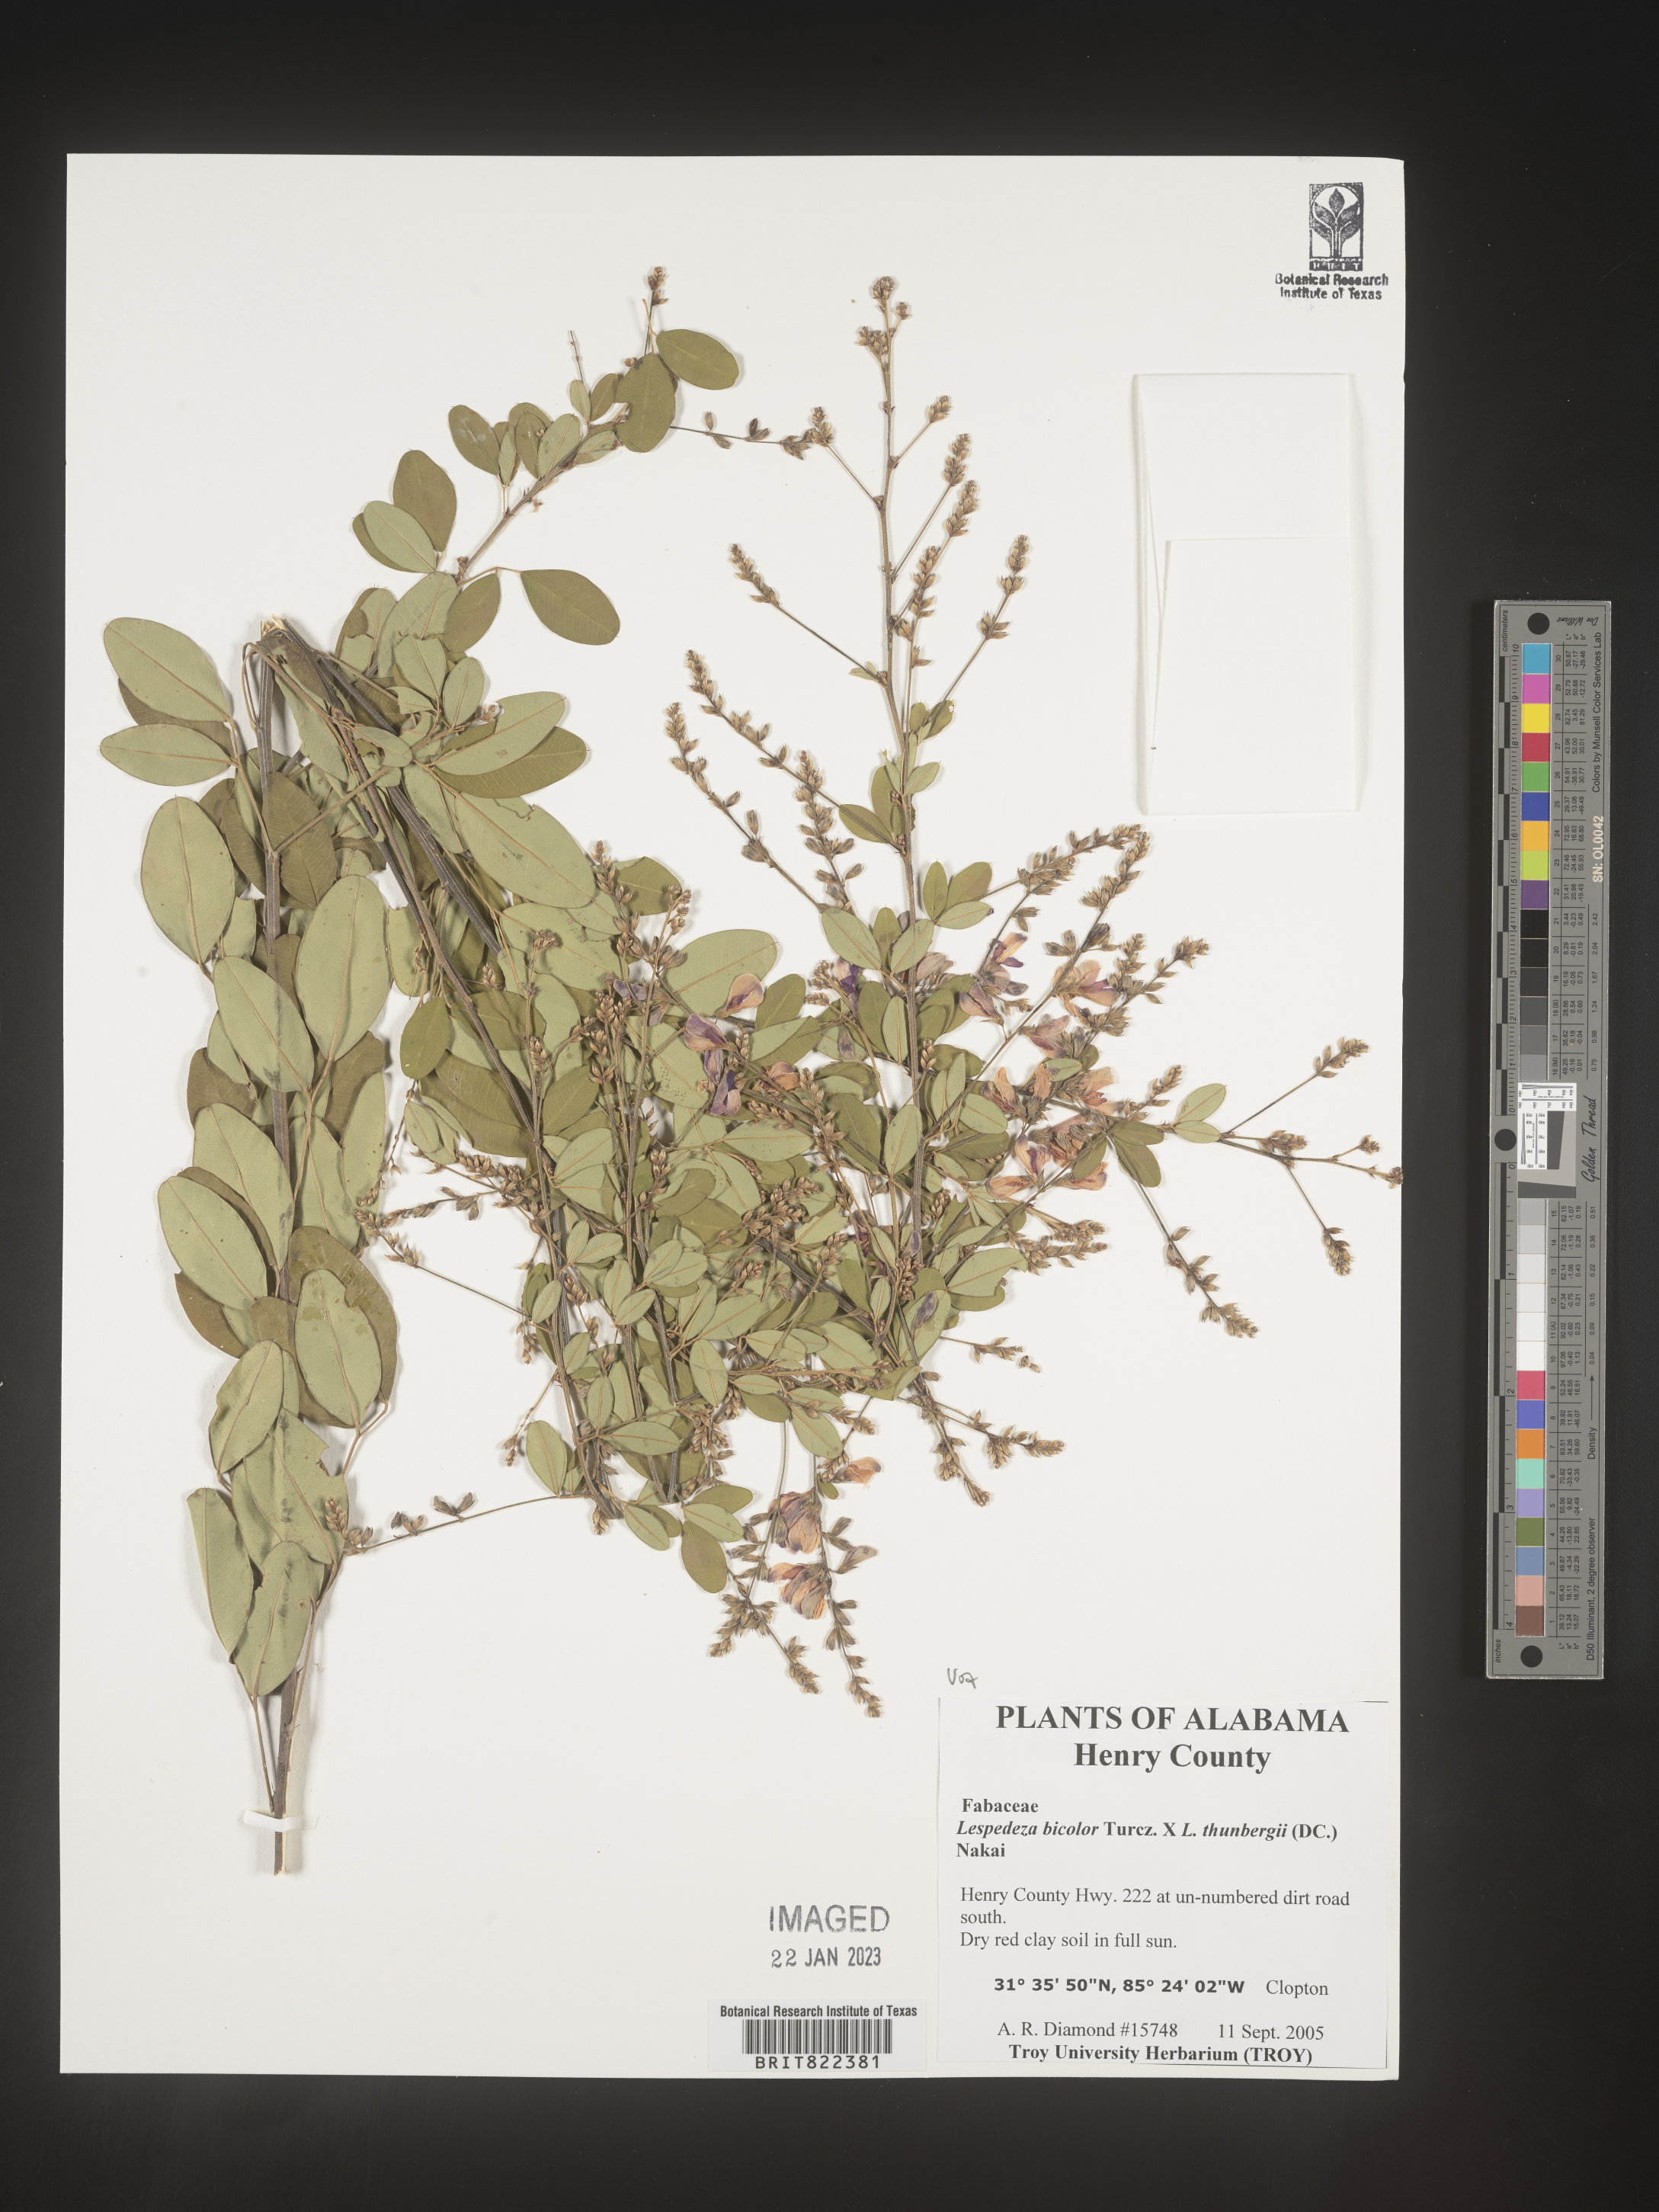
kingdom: Plantae
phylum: Tracheophyta
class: Magnoliopsida
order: Fabales
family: Fabaceae
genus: Lespedeza
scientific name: Lespedeza
